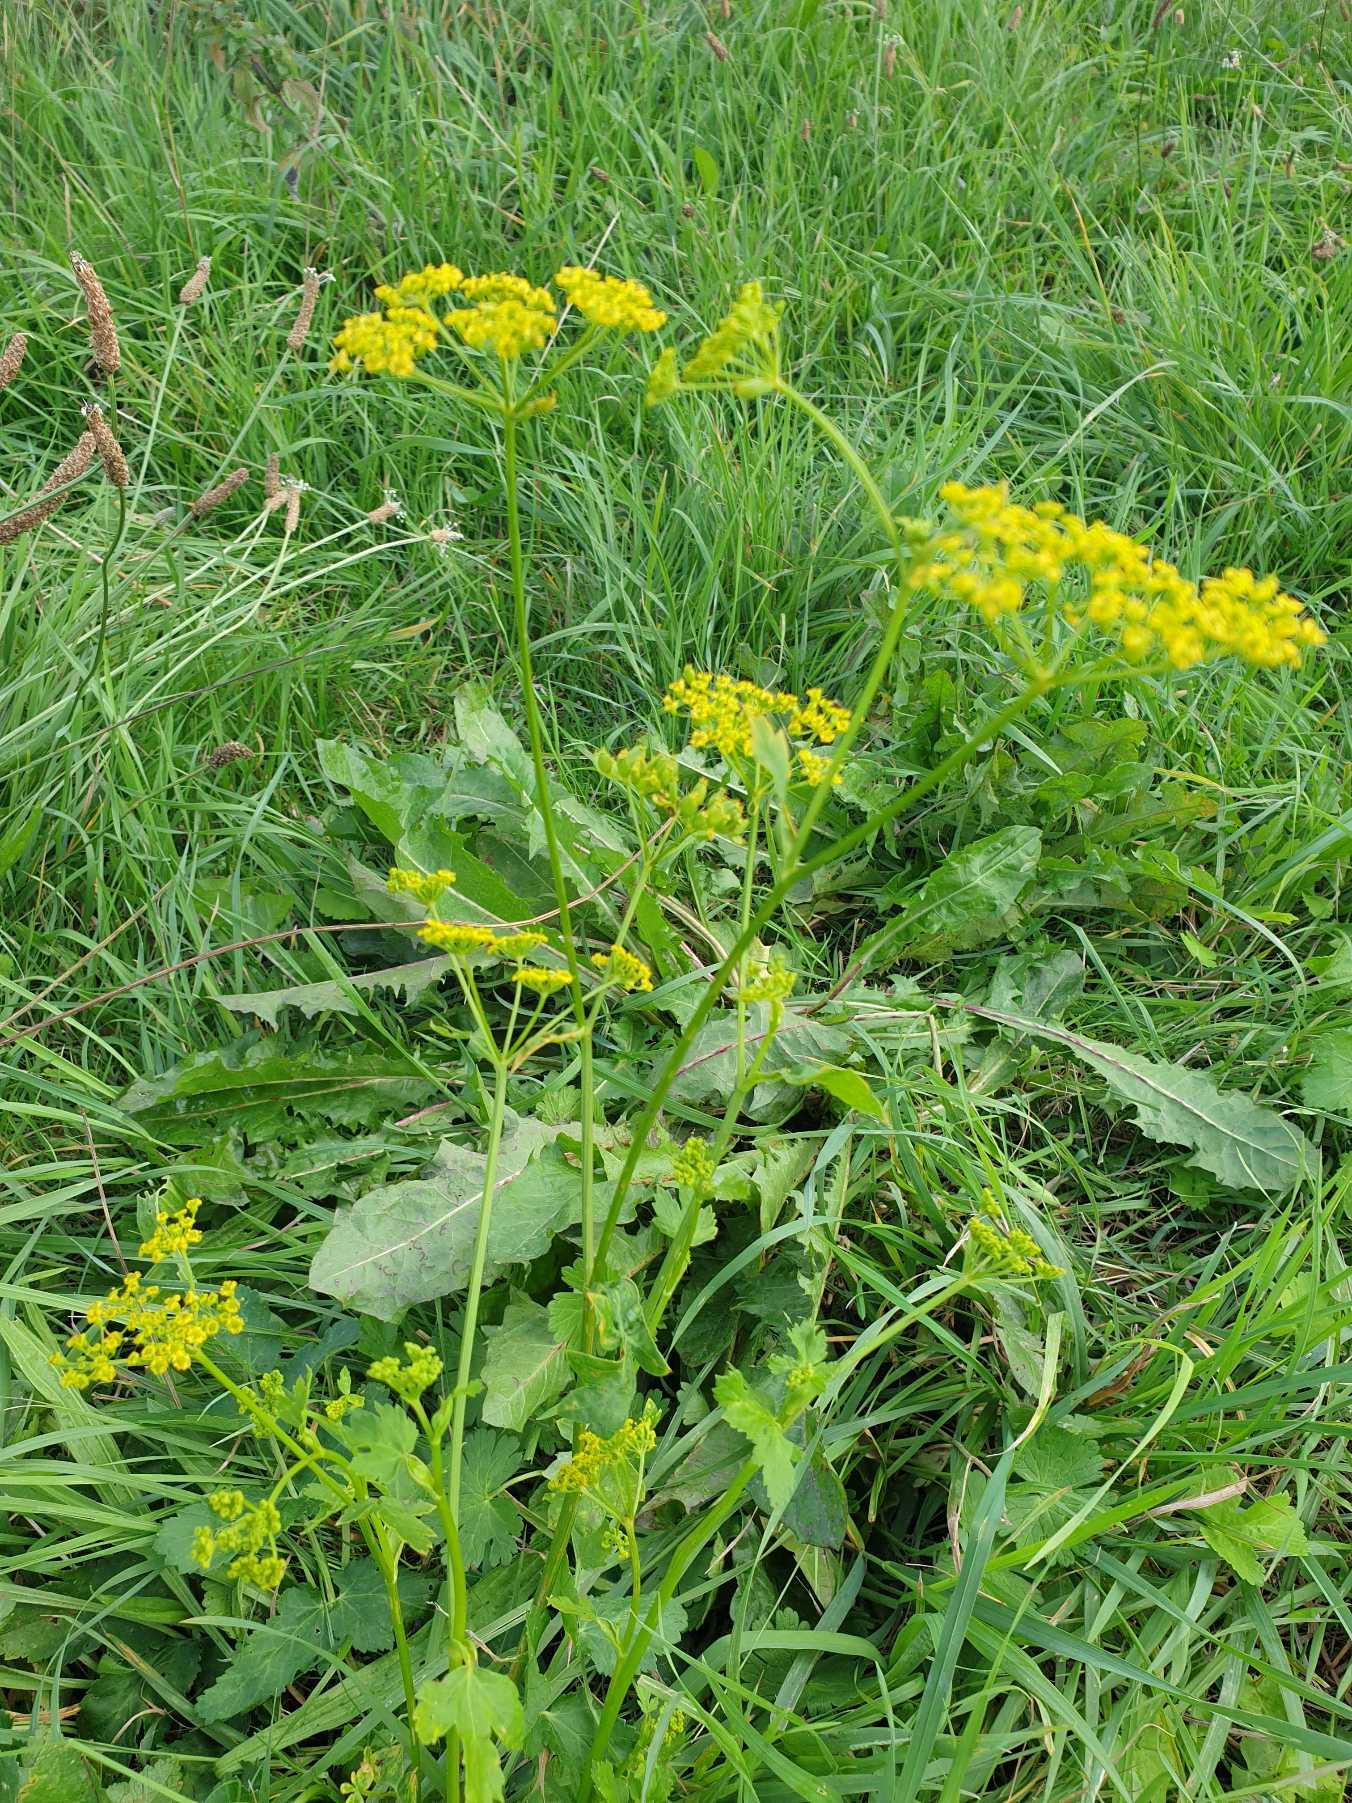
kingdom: Plantae
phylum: Tracheophyta
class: Magnoliopsida
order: Apiales
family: Apiaceae
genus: Pastinaca
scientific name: Pastinaca sativa
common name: Pastinak
